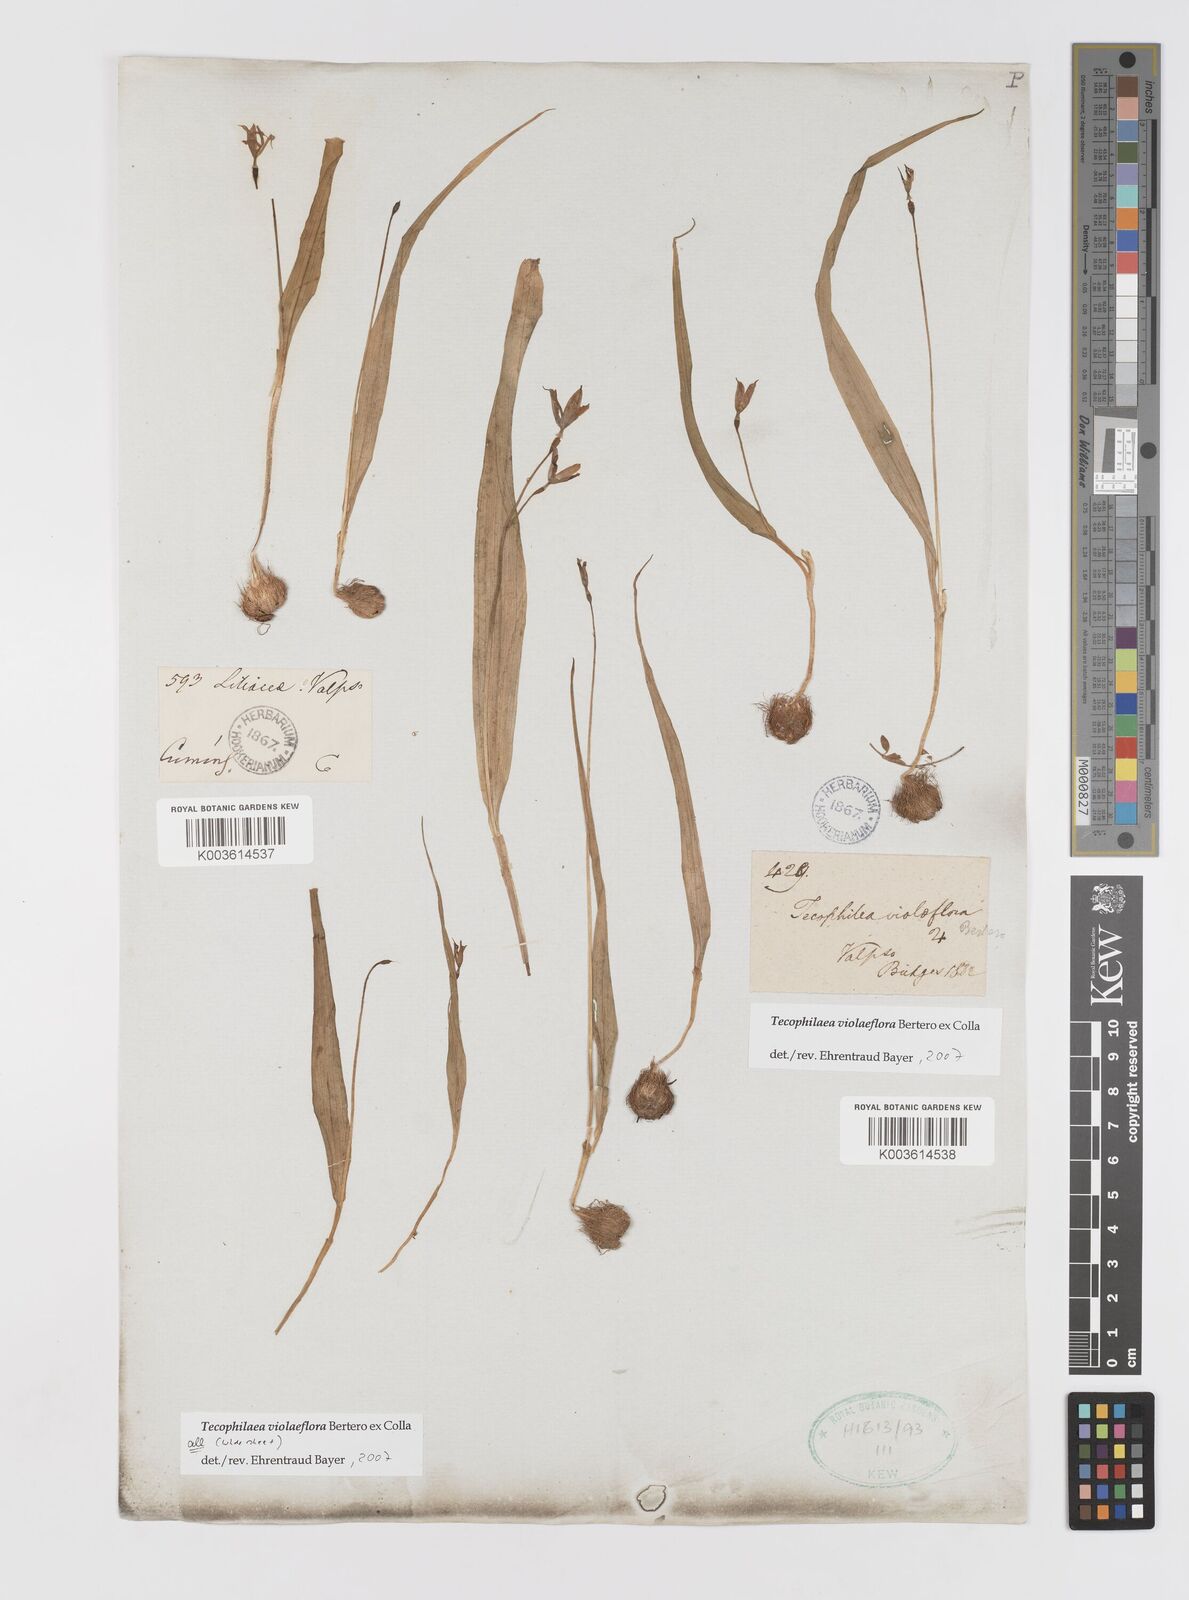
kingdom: Plantae
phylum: Tracheophyta
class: Liliopsida
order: Asparagales
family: Tecophilaeaceae
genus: Tecophilaea
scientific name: Tecophilaea violiflora
